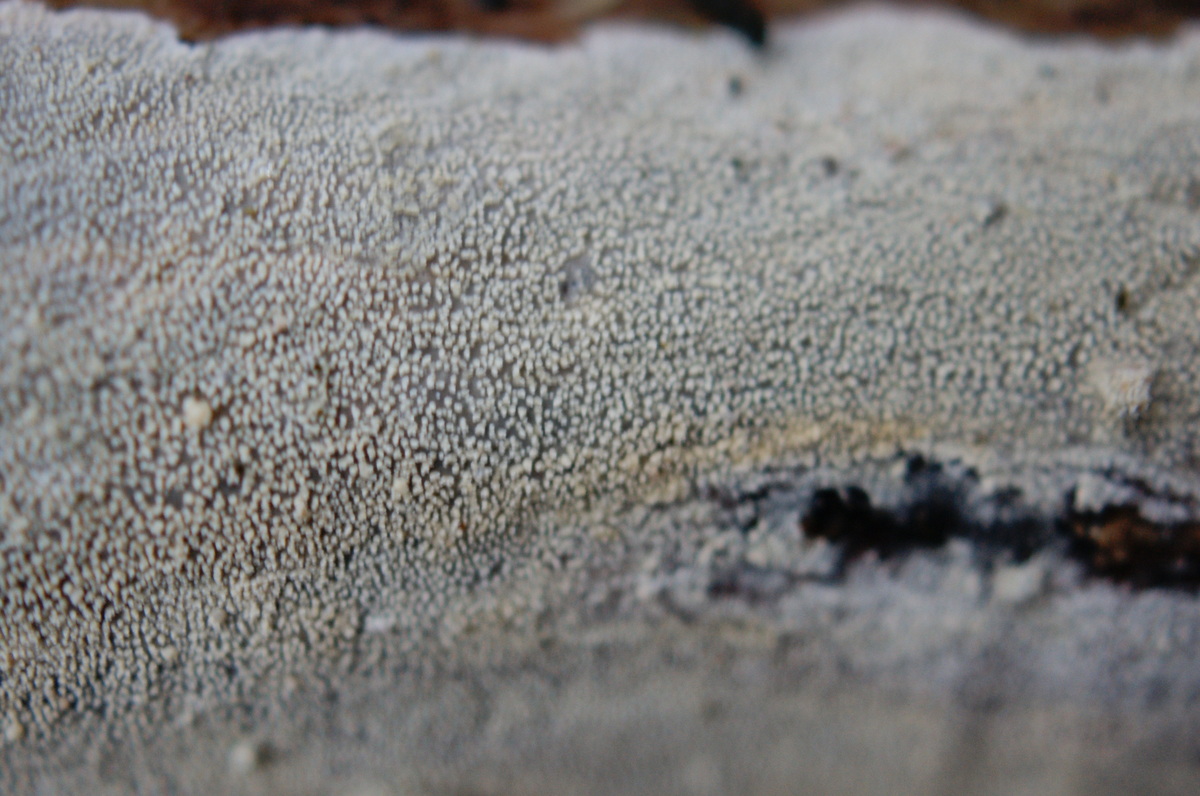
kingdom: Fungi
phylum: Basidiomycota
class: Agaricomycetes
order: Corticiales
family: Corticiaceae
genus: Lyomyces
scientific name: Lyomyces crustosus
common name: vortet hyldehinde
